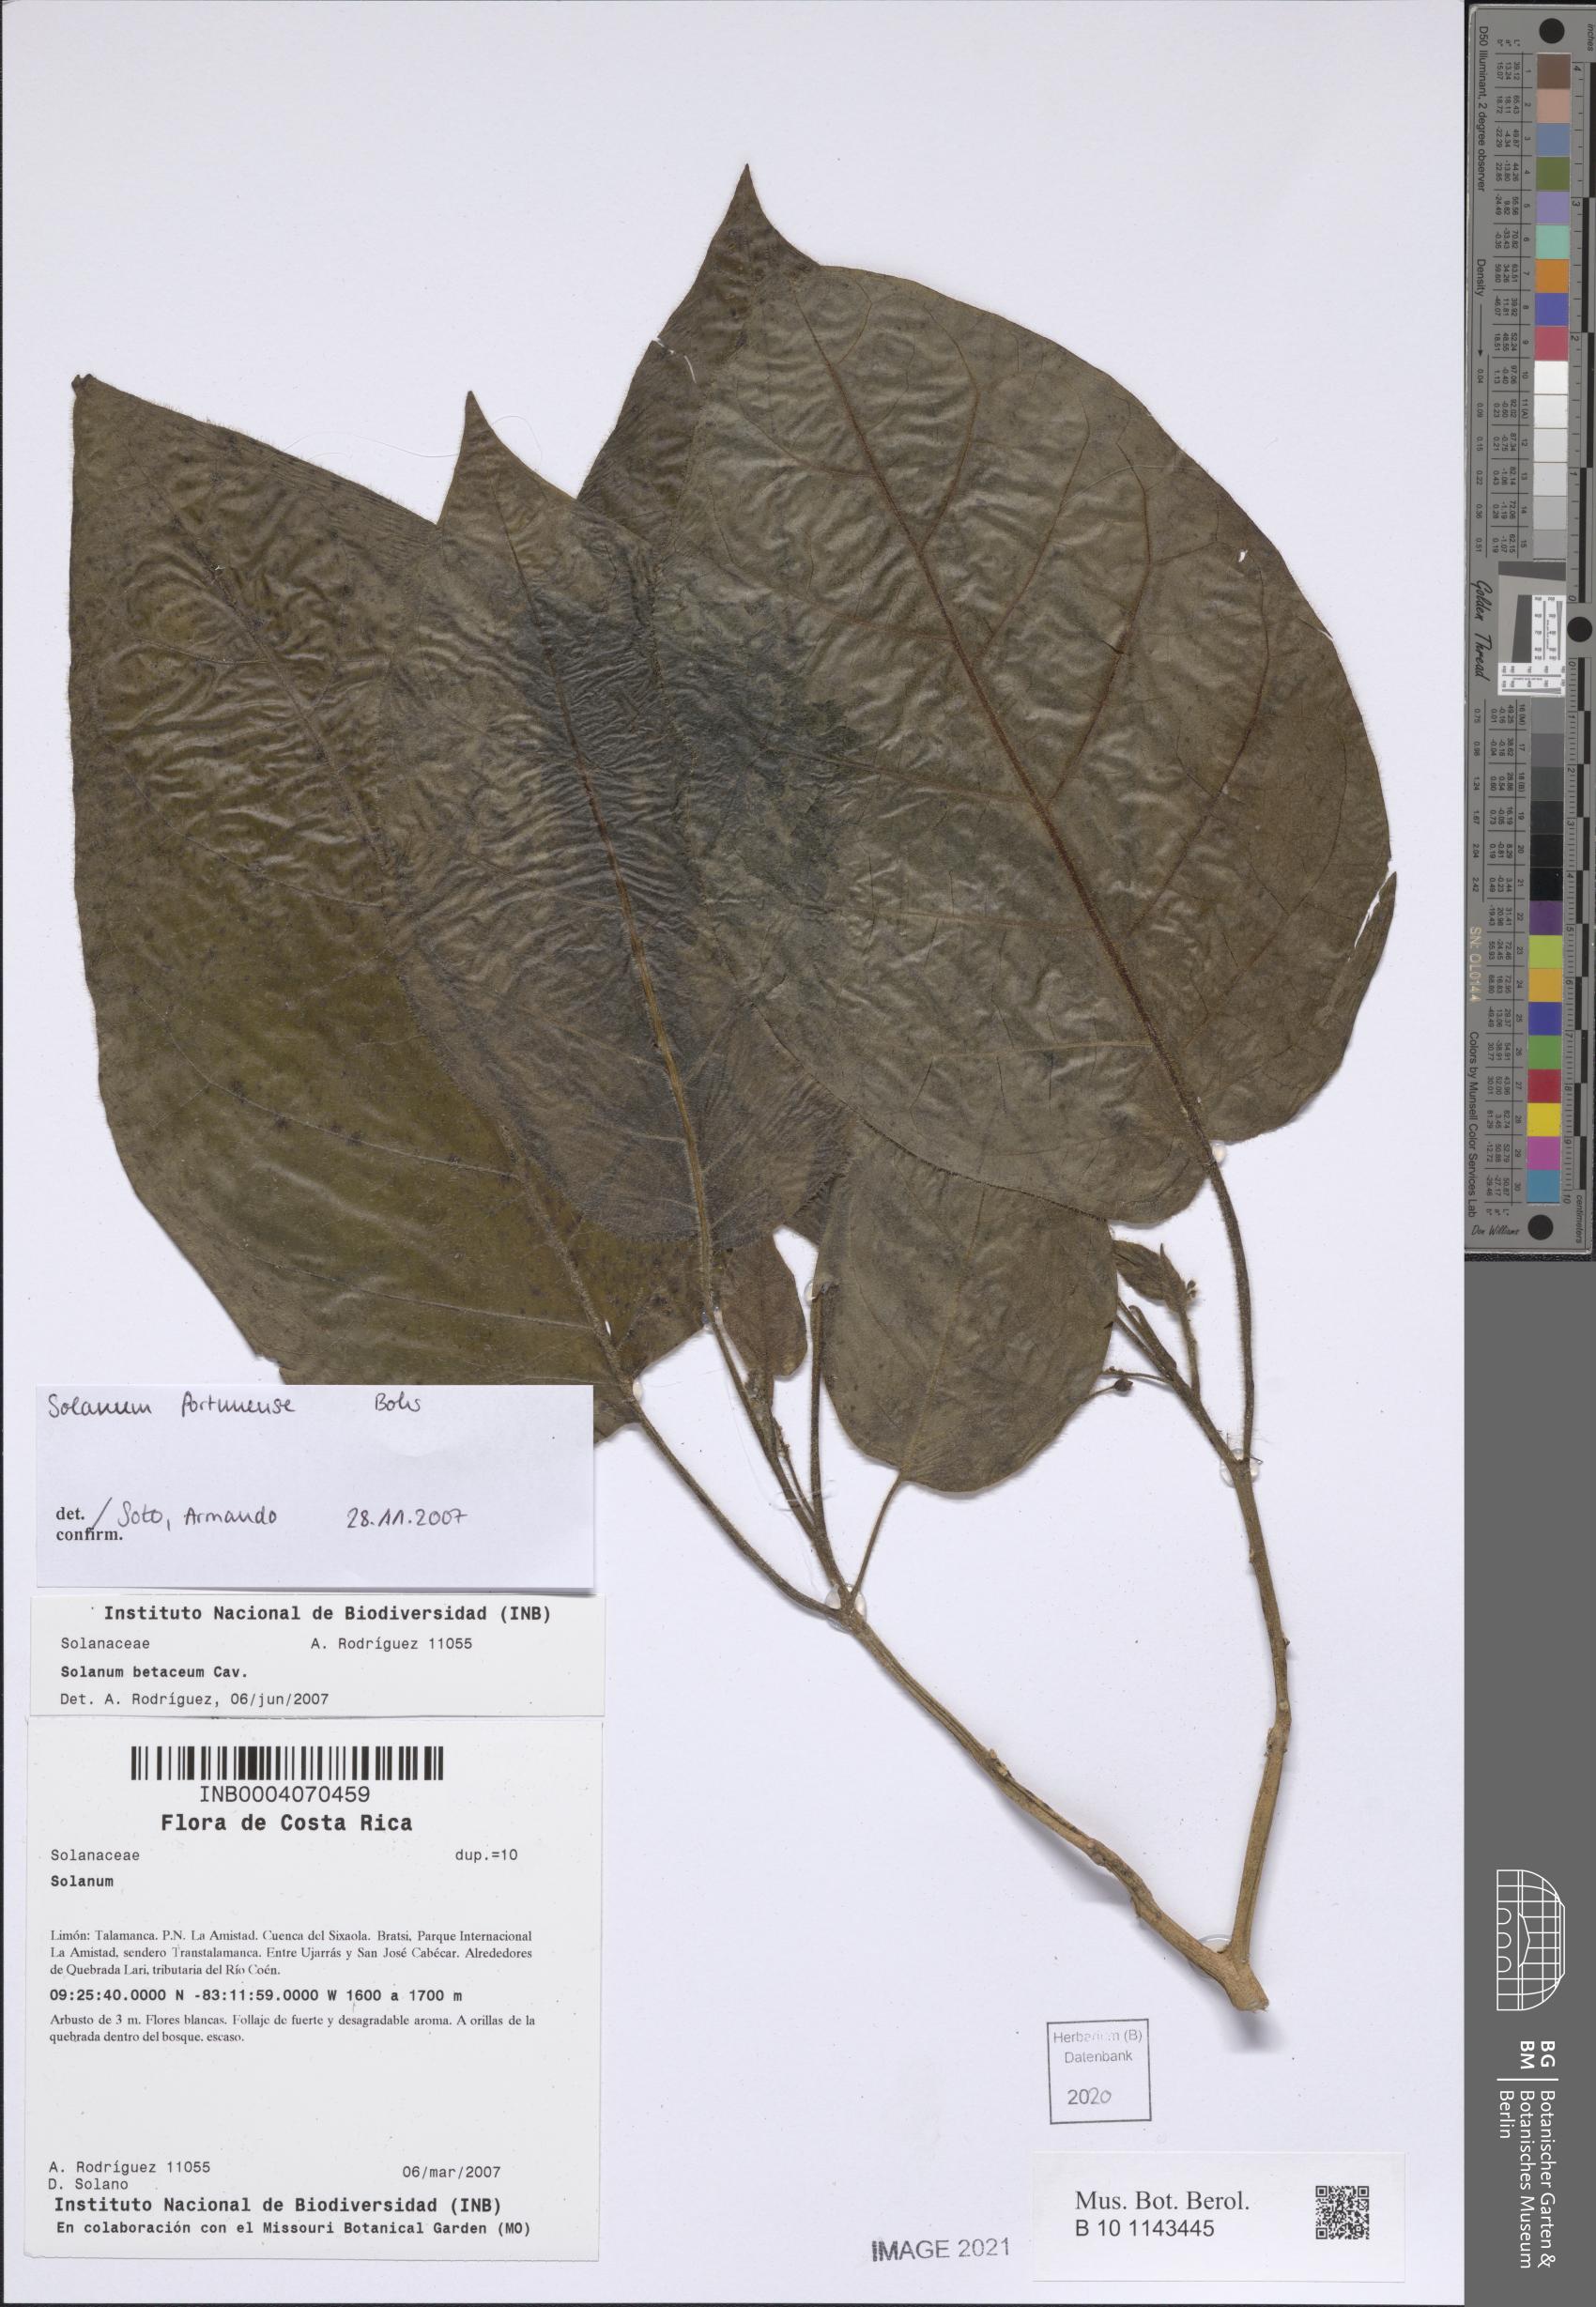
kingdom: Plantae
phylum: Tracheophyta
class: Magnoliopsida
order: Solanales
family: Solanaceae
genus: Solanum
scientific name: Solanum fortunense
